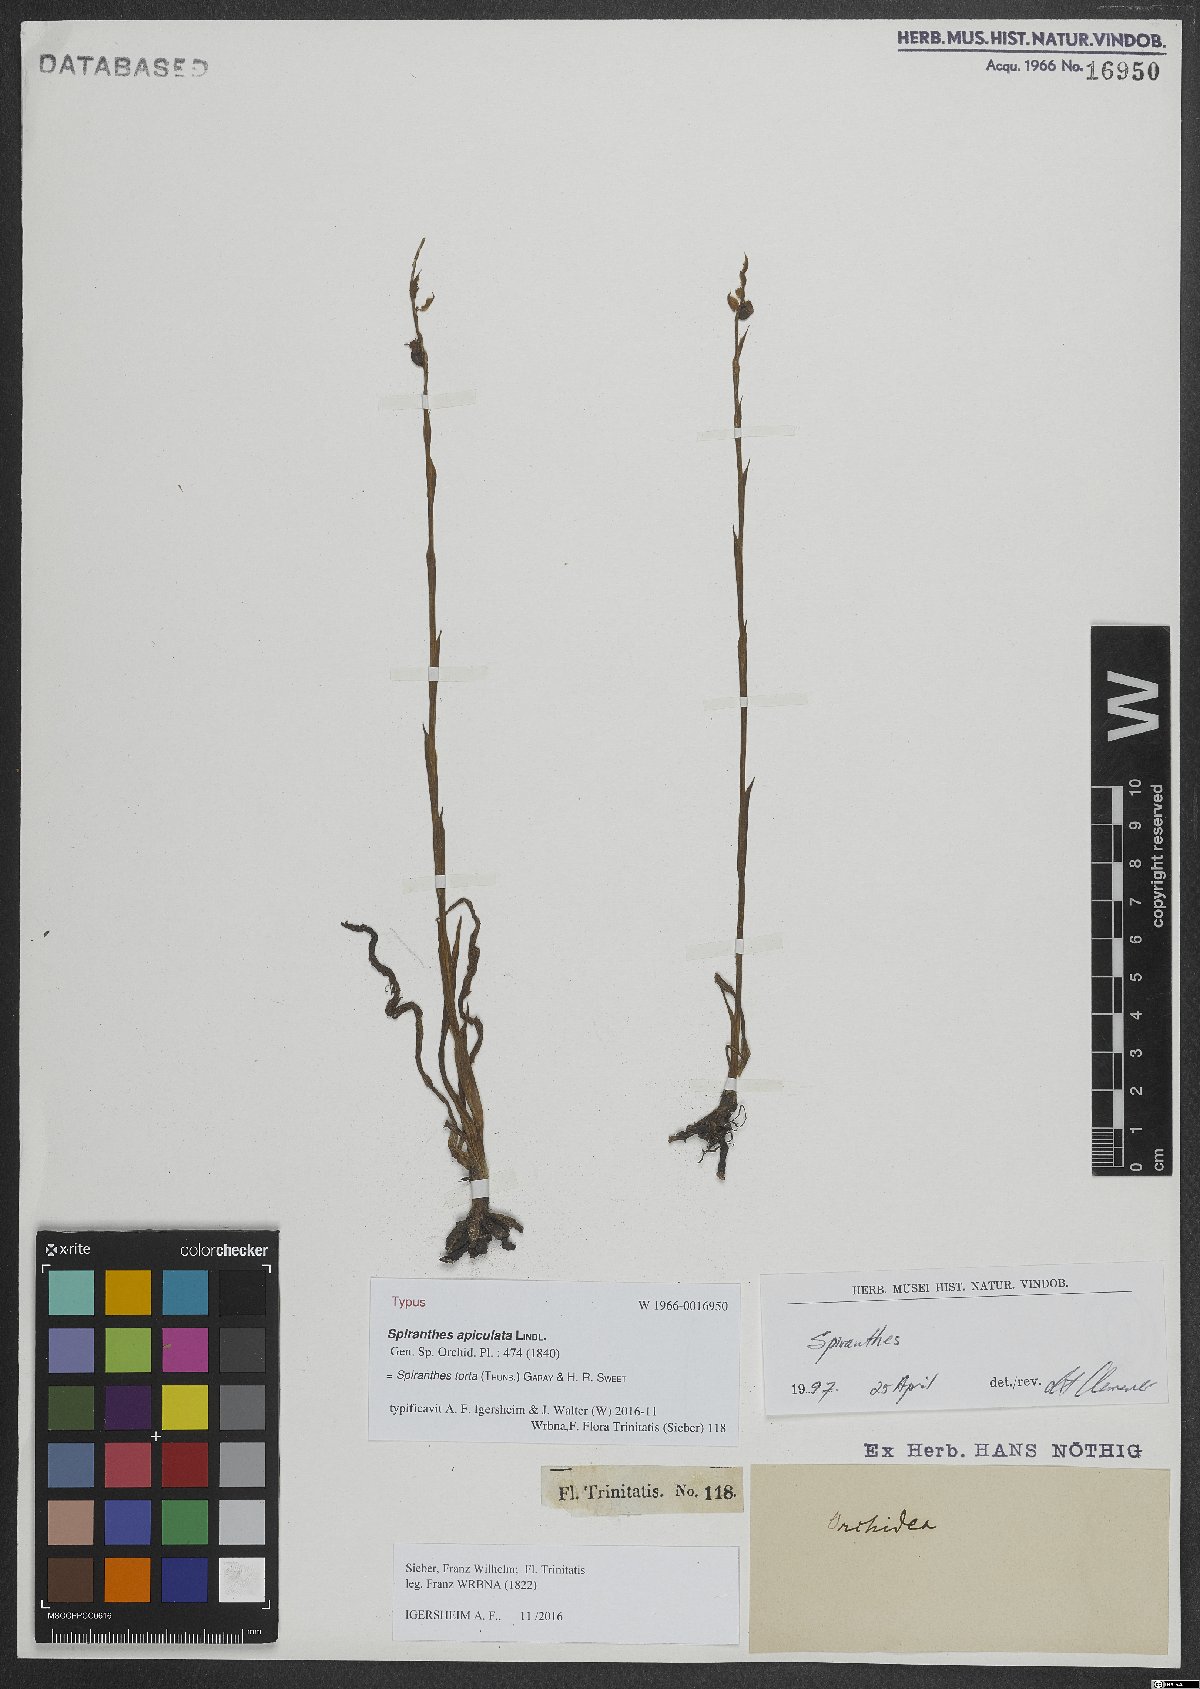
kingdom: Plantae
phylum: Tracheophyta
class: Liliopsida
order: Asparagales
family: Orchidaceae
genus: Spiranthes
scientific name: Spiranthes torta
